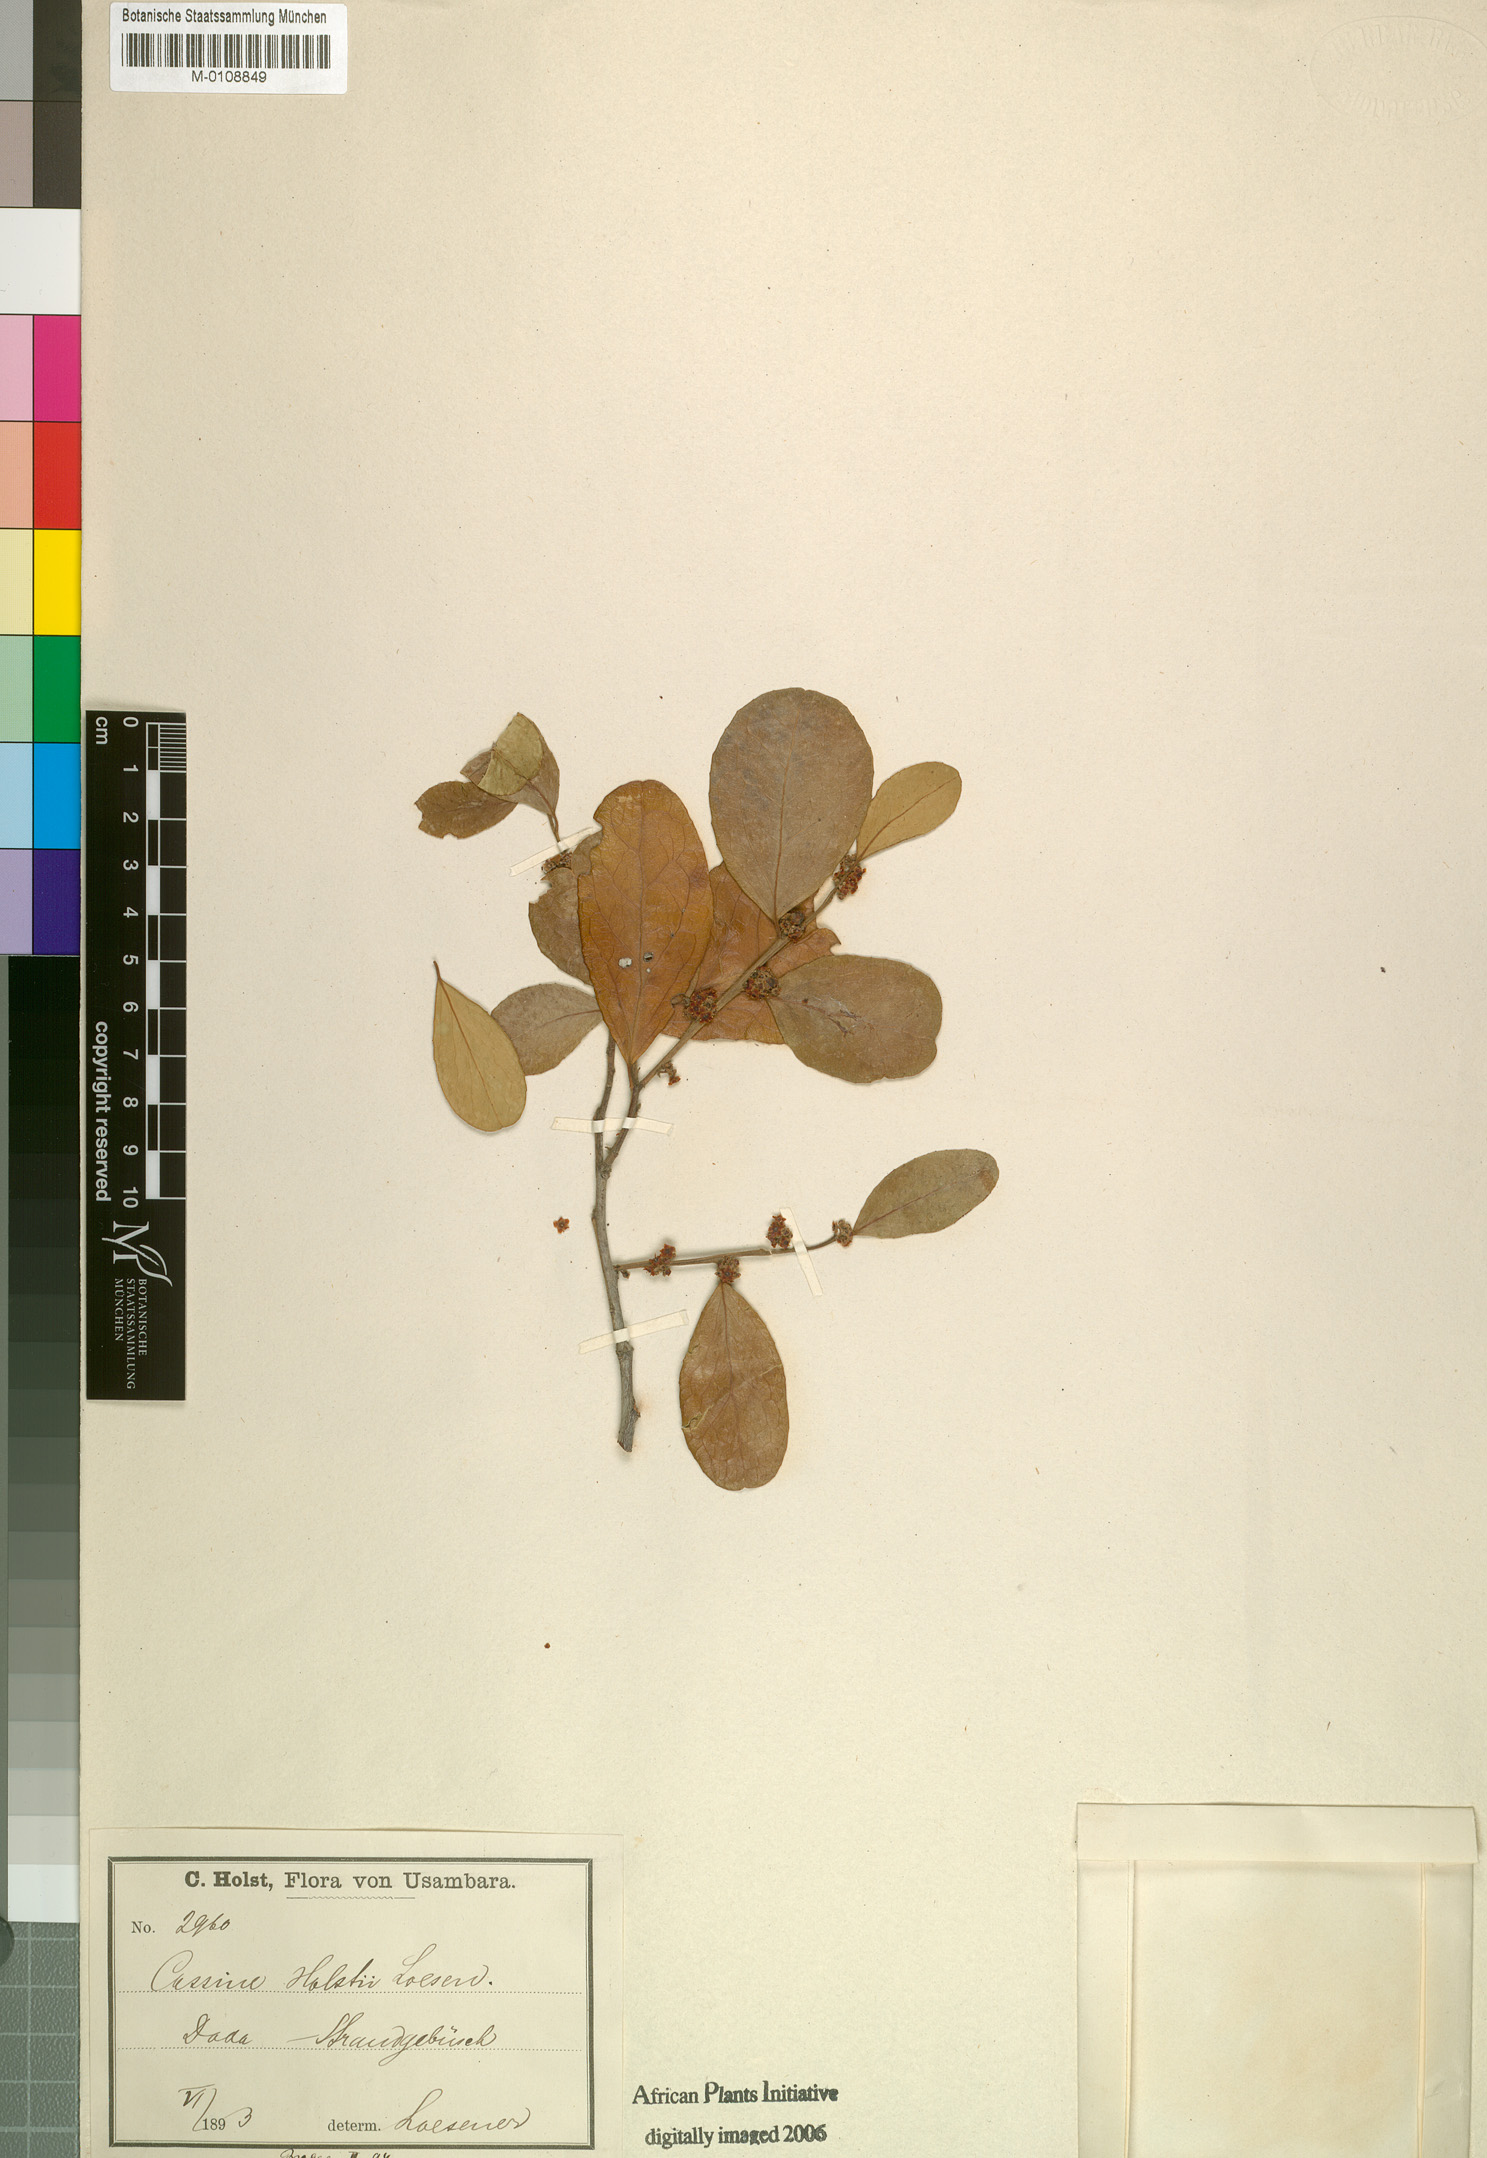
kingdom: Plantae
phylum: Tracheophyta
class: Magnoliopsida
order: Celastrales
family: Celastraceae
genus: Mystroxylon
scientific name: Mystroxylon aethiopicum
